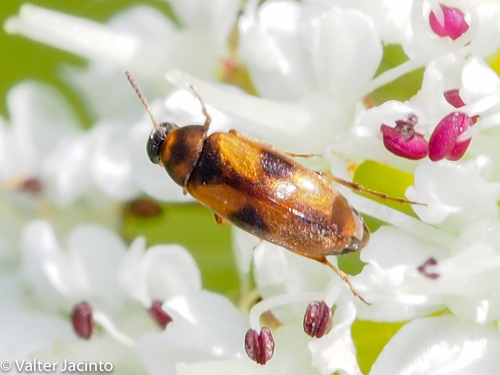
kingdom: Animalia
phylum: Arthropoda
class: Insecta
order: Coleoptera
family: Scraptiidae
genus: Anaspis
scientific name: Anaspis
